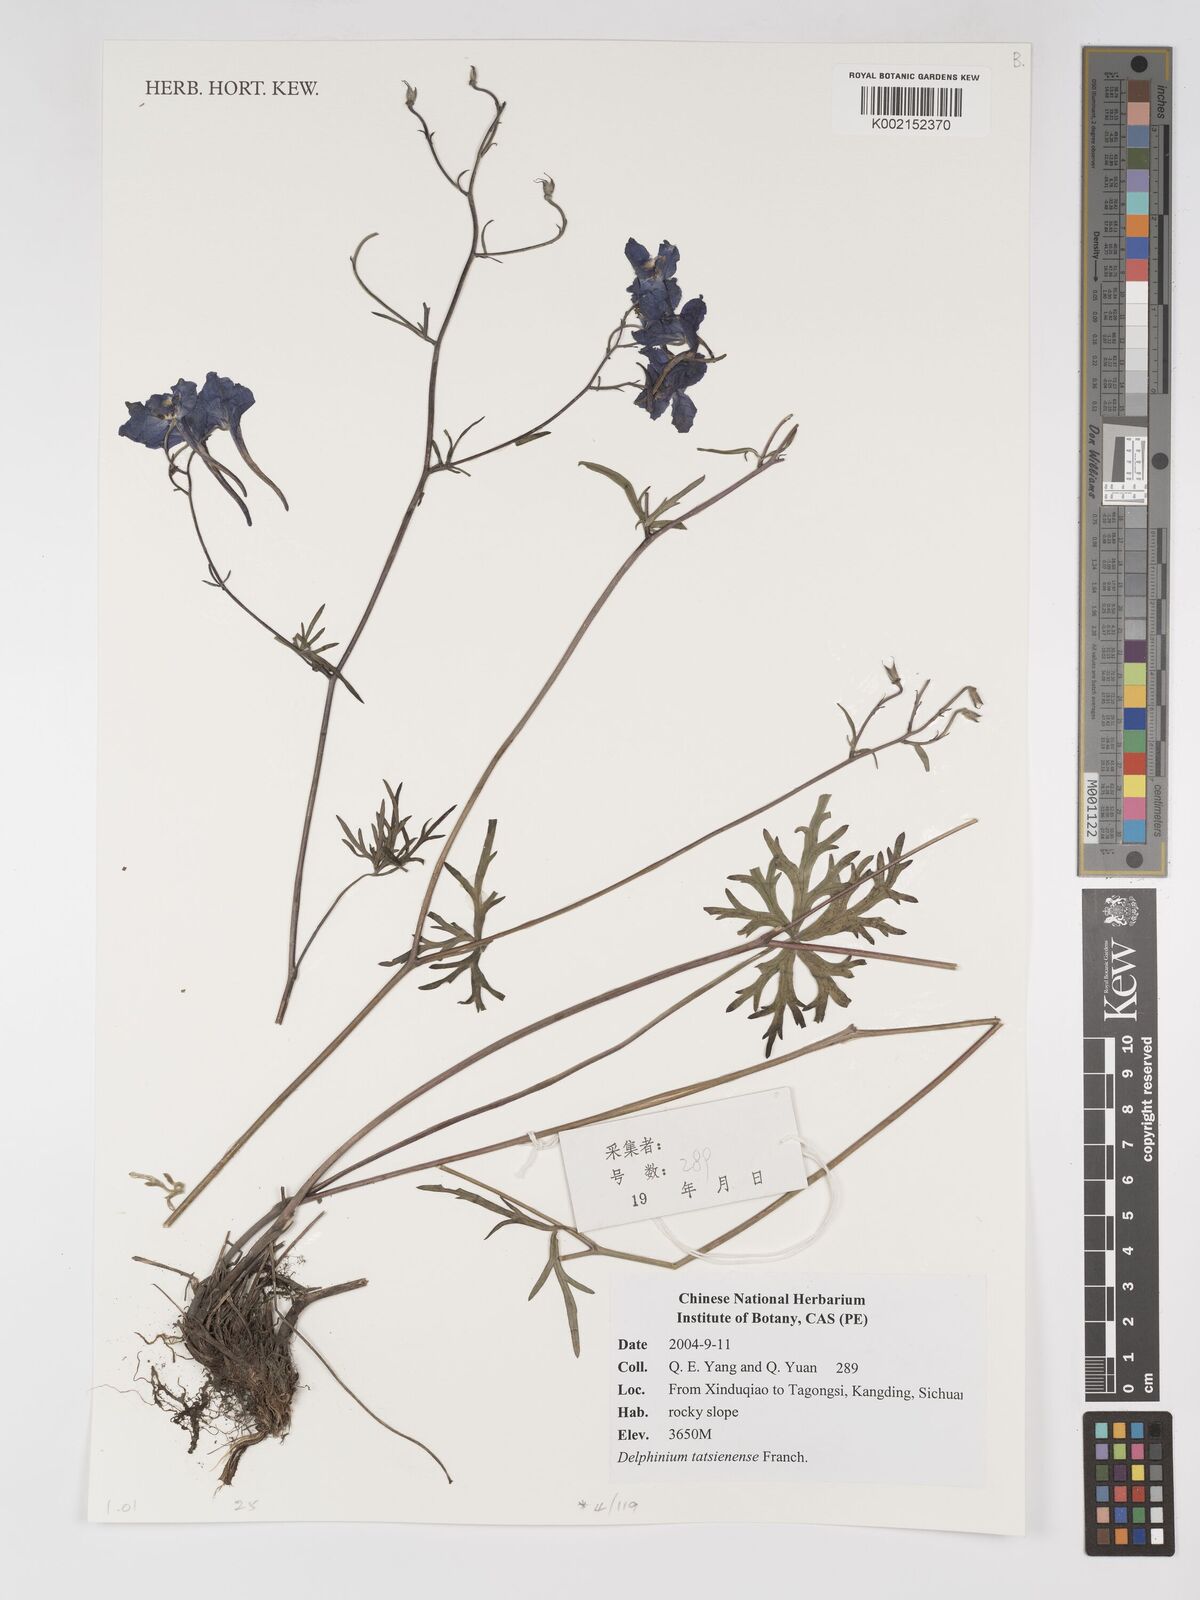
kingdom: Plantae
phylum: Tracheophyta
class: Magnoliopsida
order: Ranunculales
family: Ranunculaceae
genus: Delphinium
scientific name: Delphinium tatsienense
